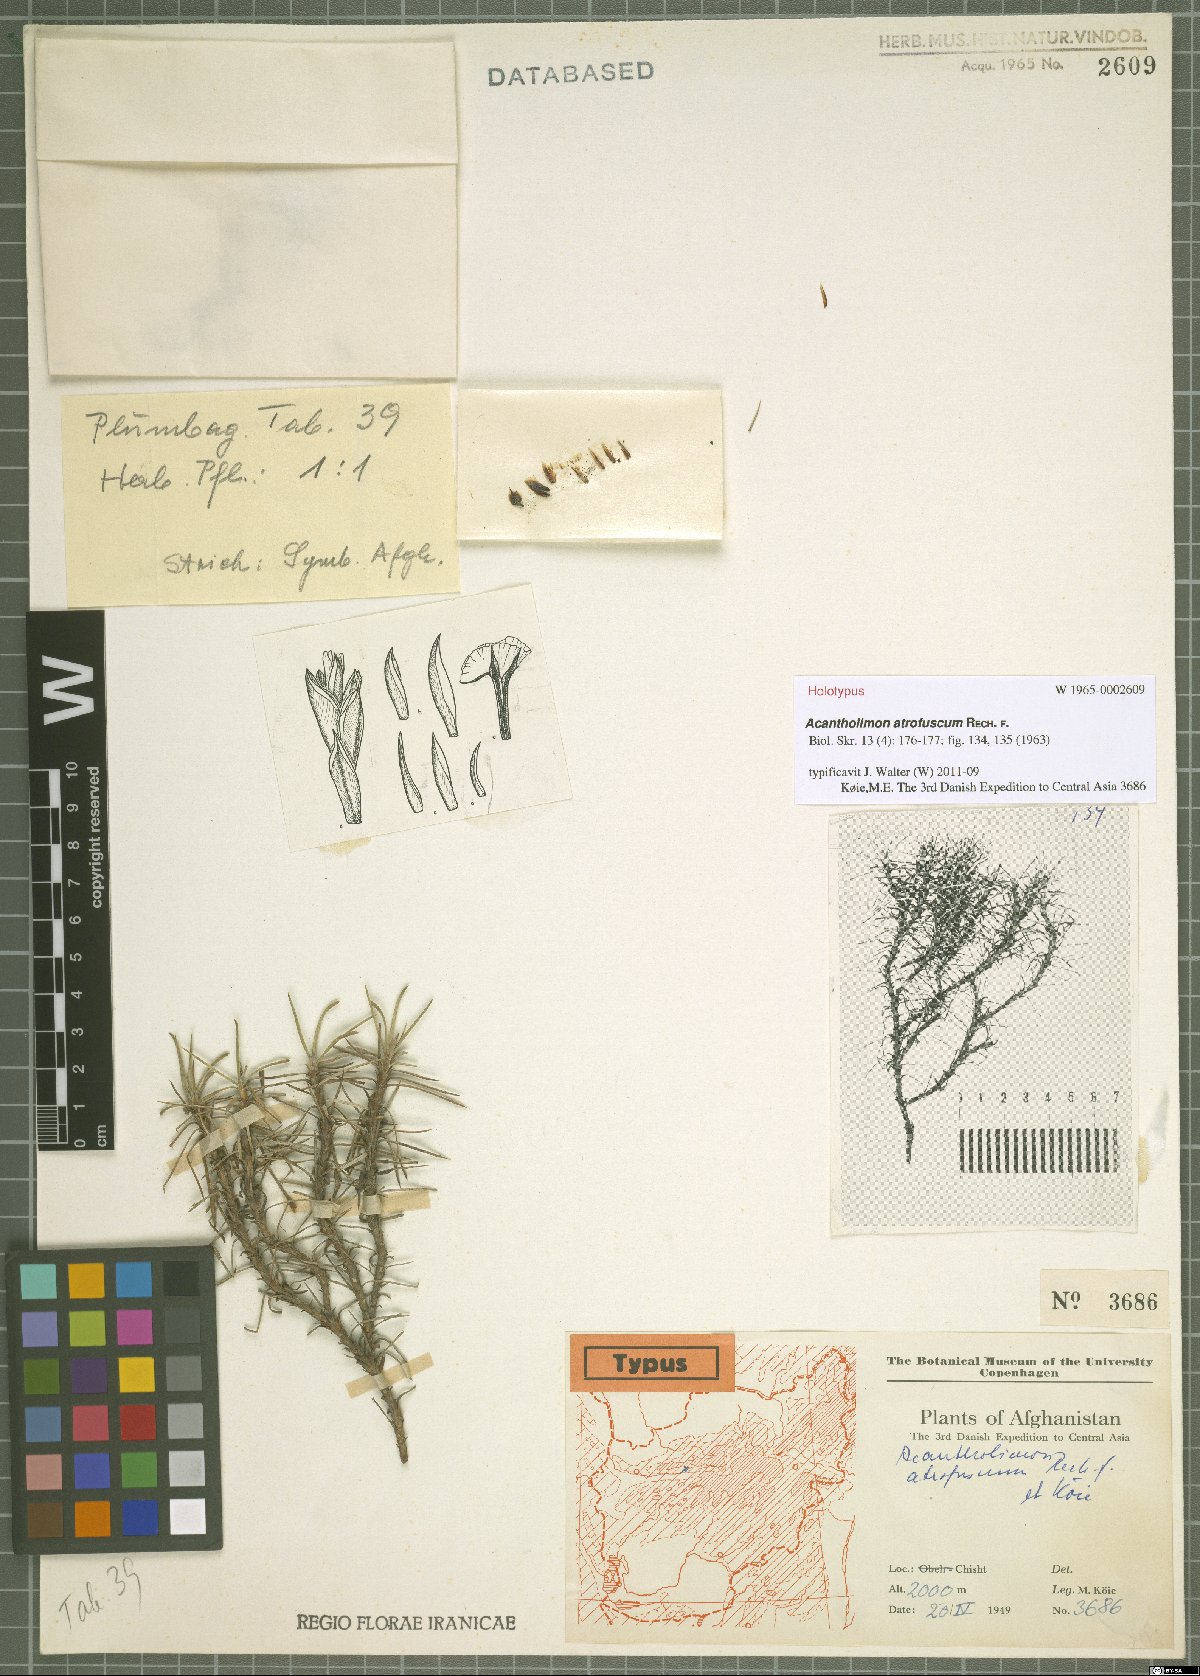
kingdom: Plantae
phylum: Tracheophyta
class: Magnoliopsida
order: Caryophyllales
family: Plumbaginaceae
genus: Acantholimon
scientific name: Acantholimon atrofuscum
